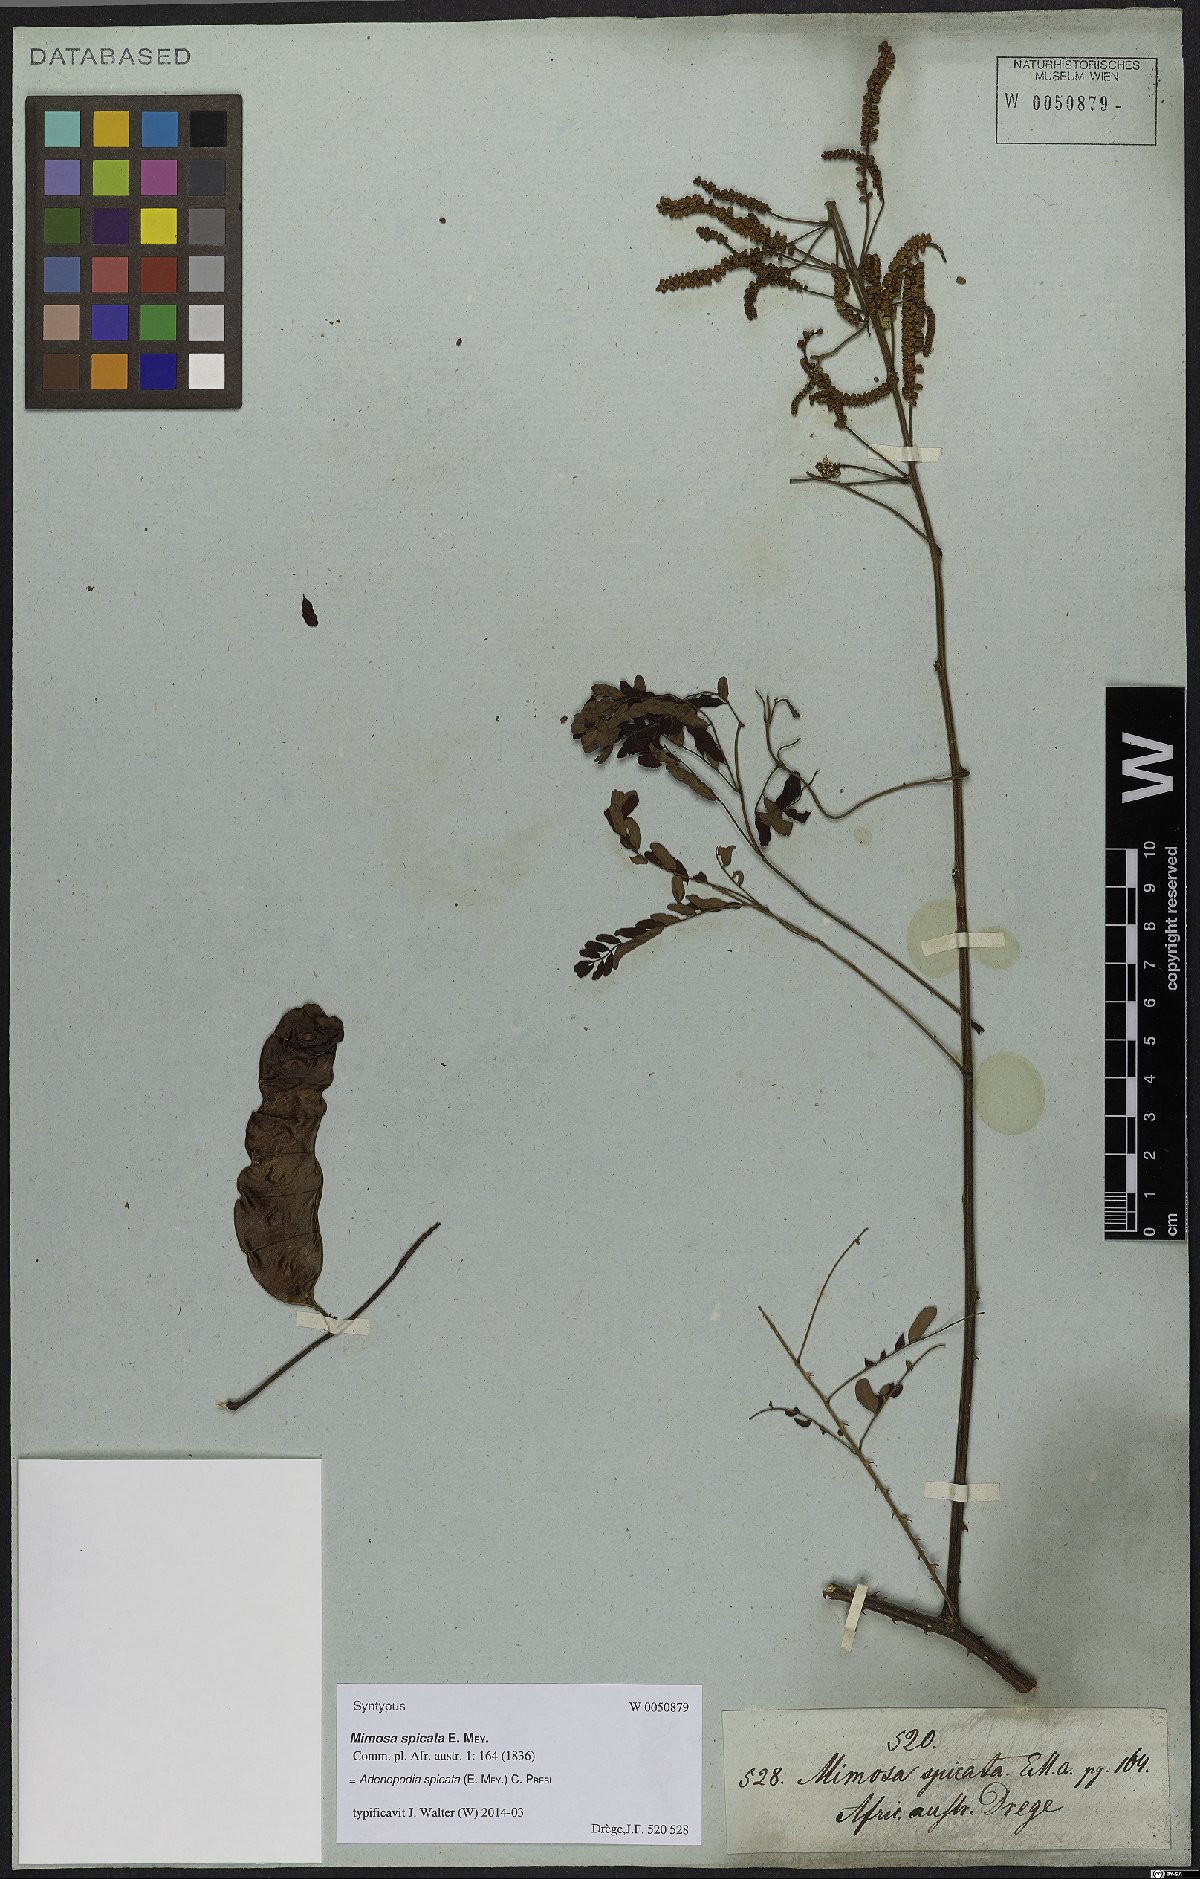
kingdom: Plantae
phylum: Tracheophyta
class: Magnoliopsida
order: Fabales
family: Fabaceae
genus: Adenopodia
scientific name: Adenopodia spicata
